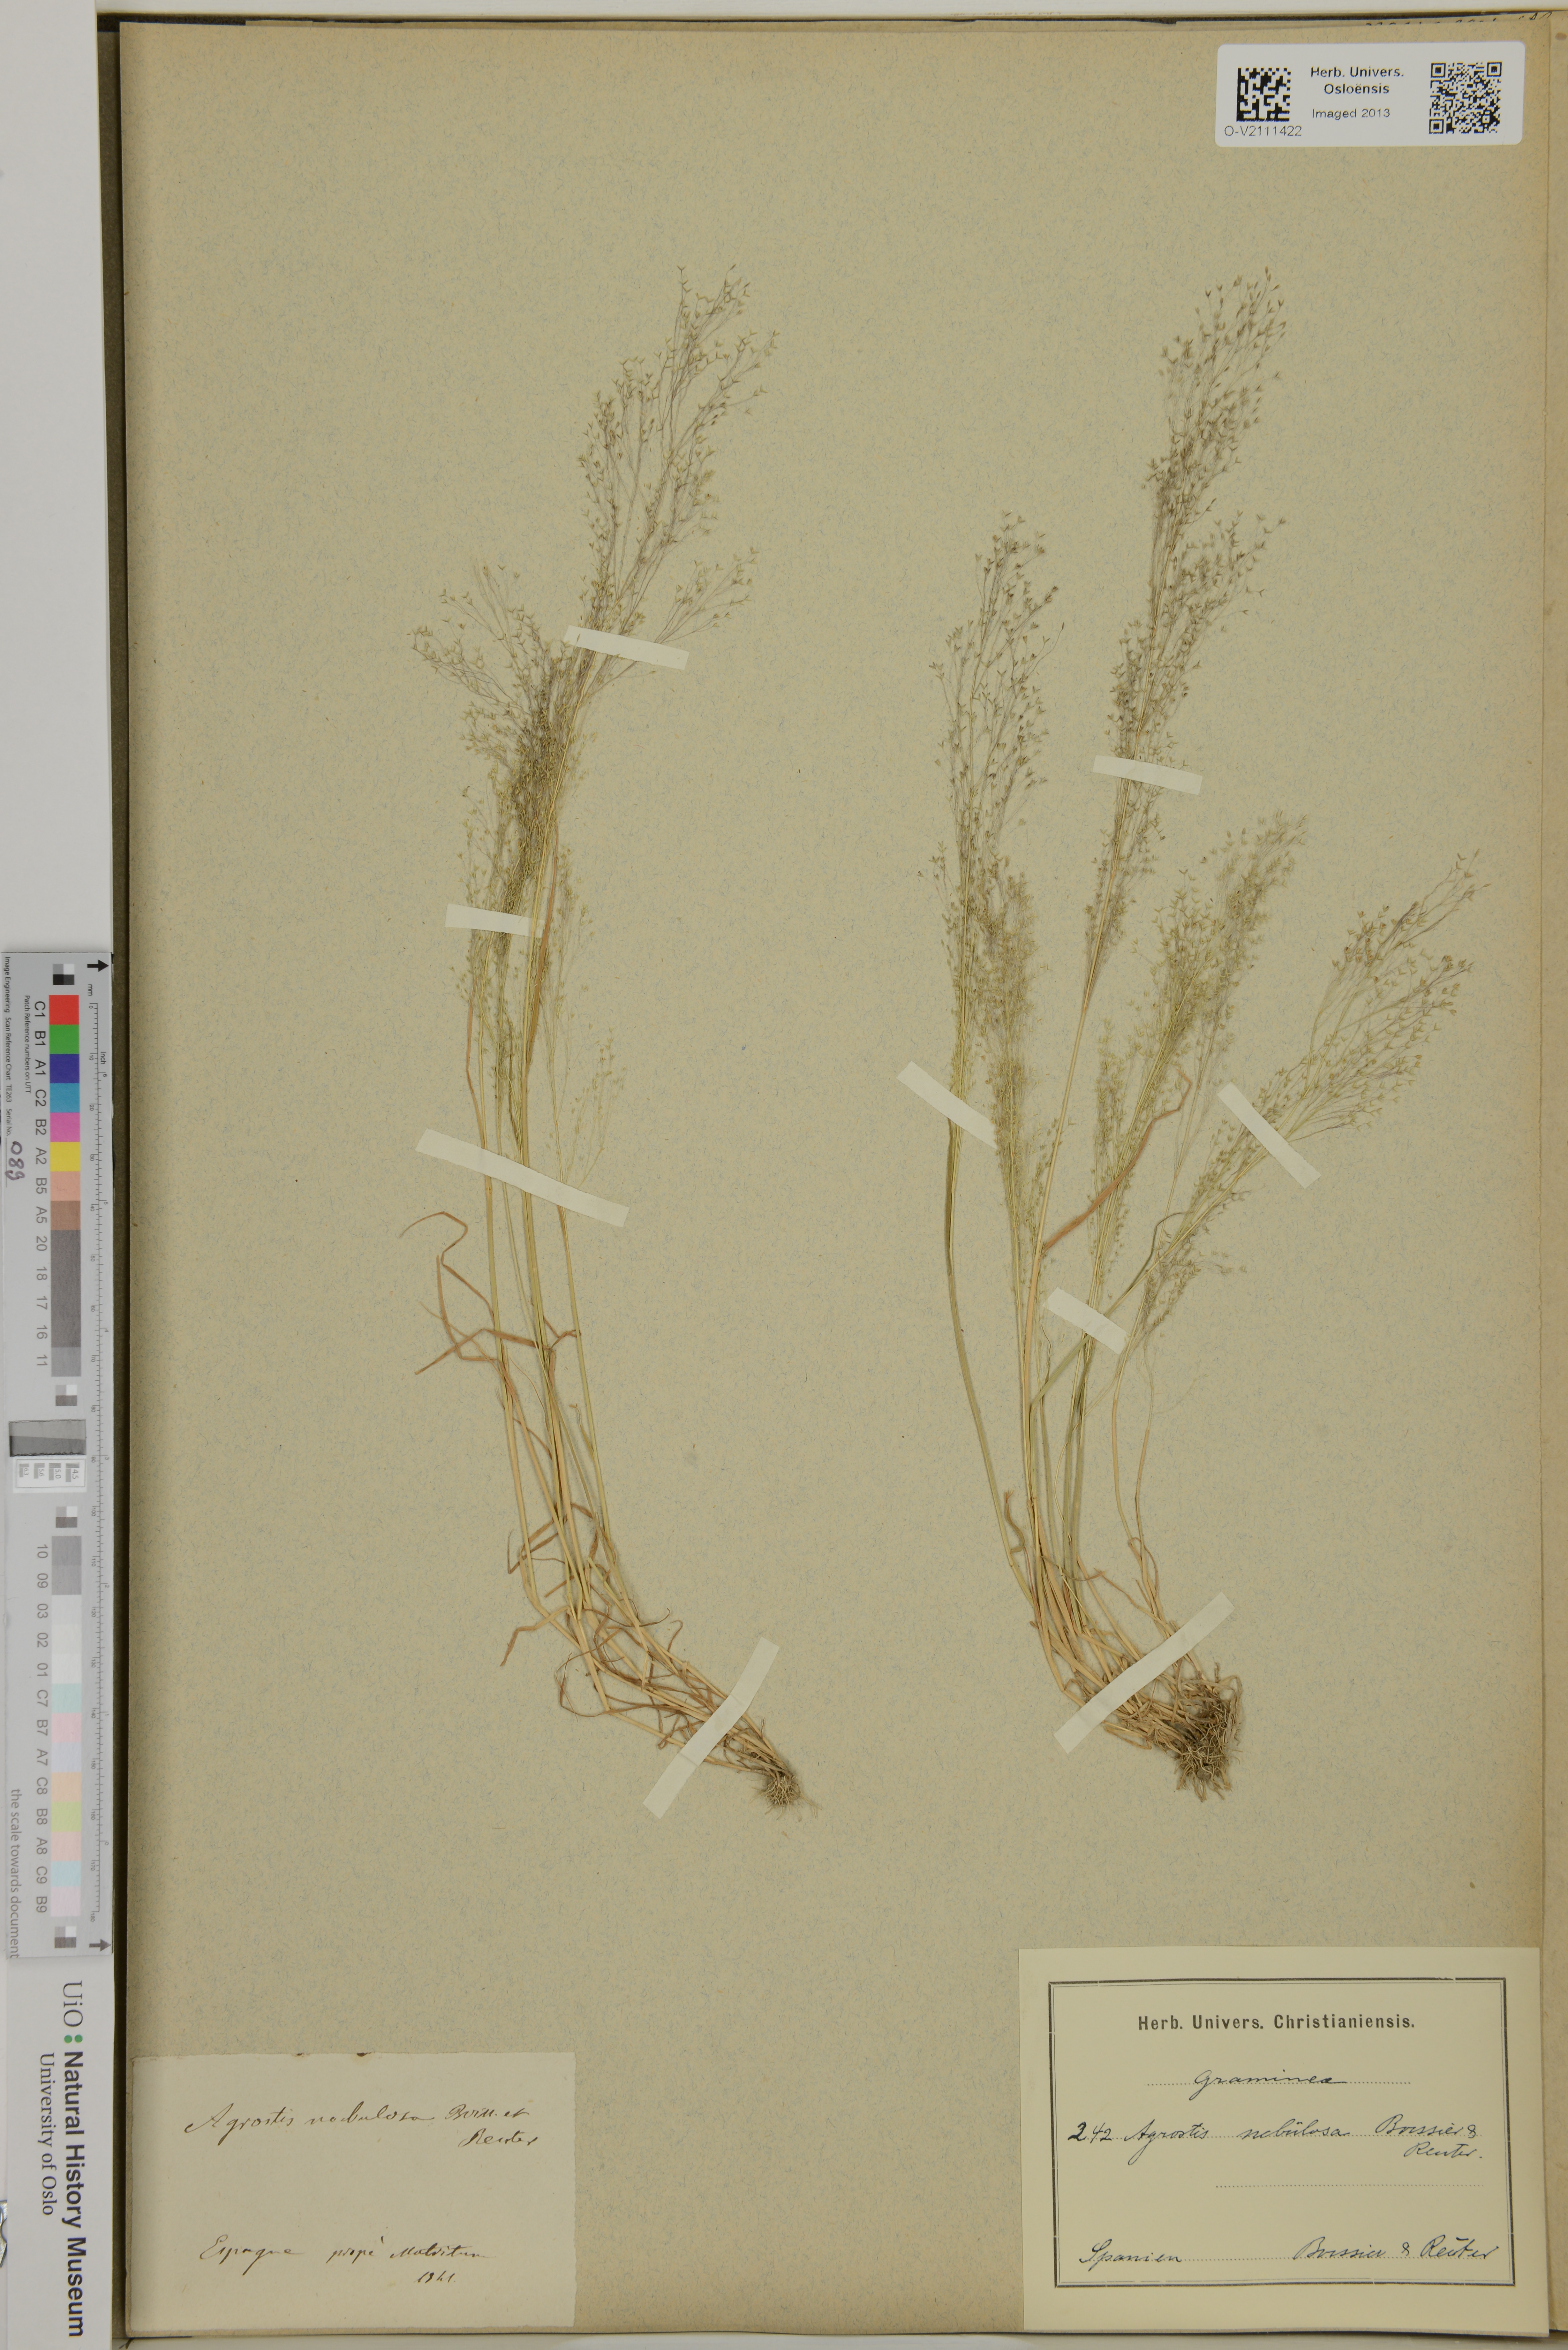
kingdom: Plantae
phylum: Tracheophyta
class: Liliopsida
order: Poales
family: Poaceae
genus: Agrostis
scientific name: Agrostis nebulosa
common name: Cloud grass
